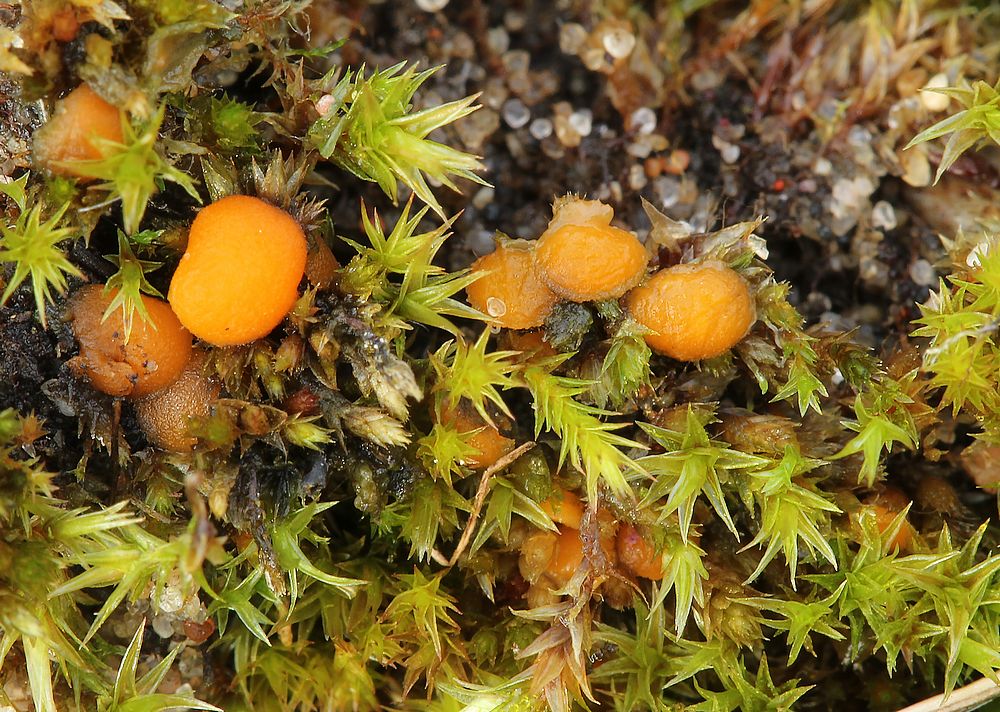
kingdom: Fungi
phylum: Ascomycota
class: Pezizomycetes
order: Pezizales
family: Pyronemataceae
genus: Byssonectria
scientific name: Byssonectria terrestris
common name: hjortebæger
